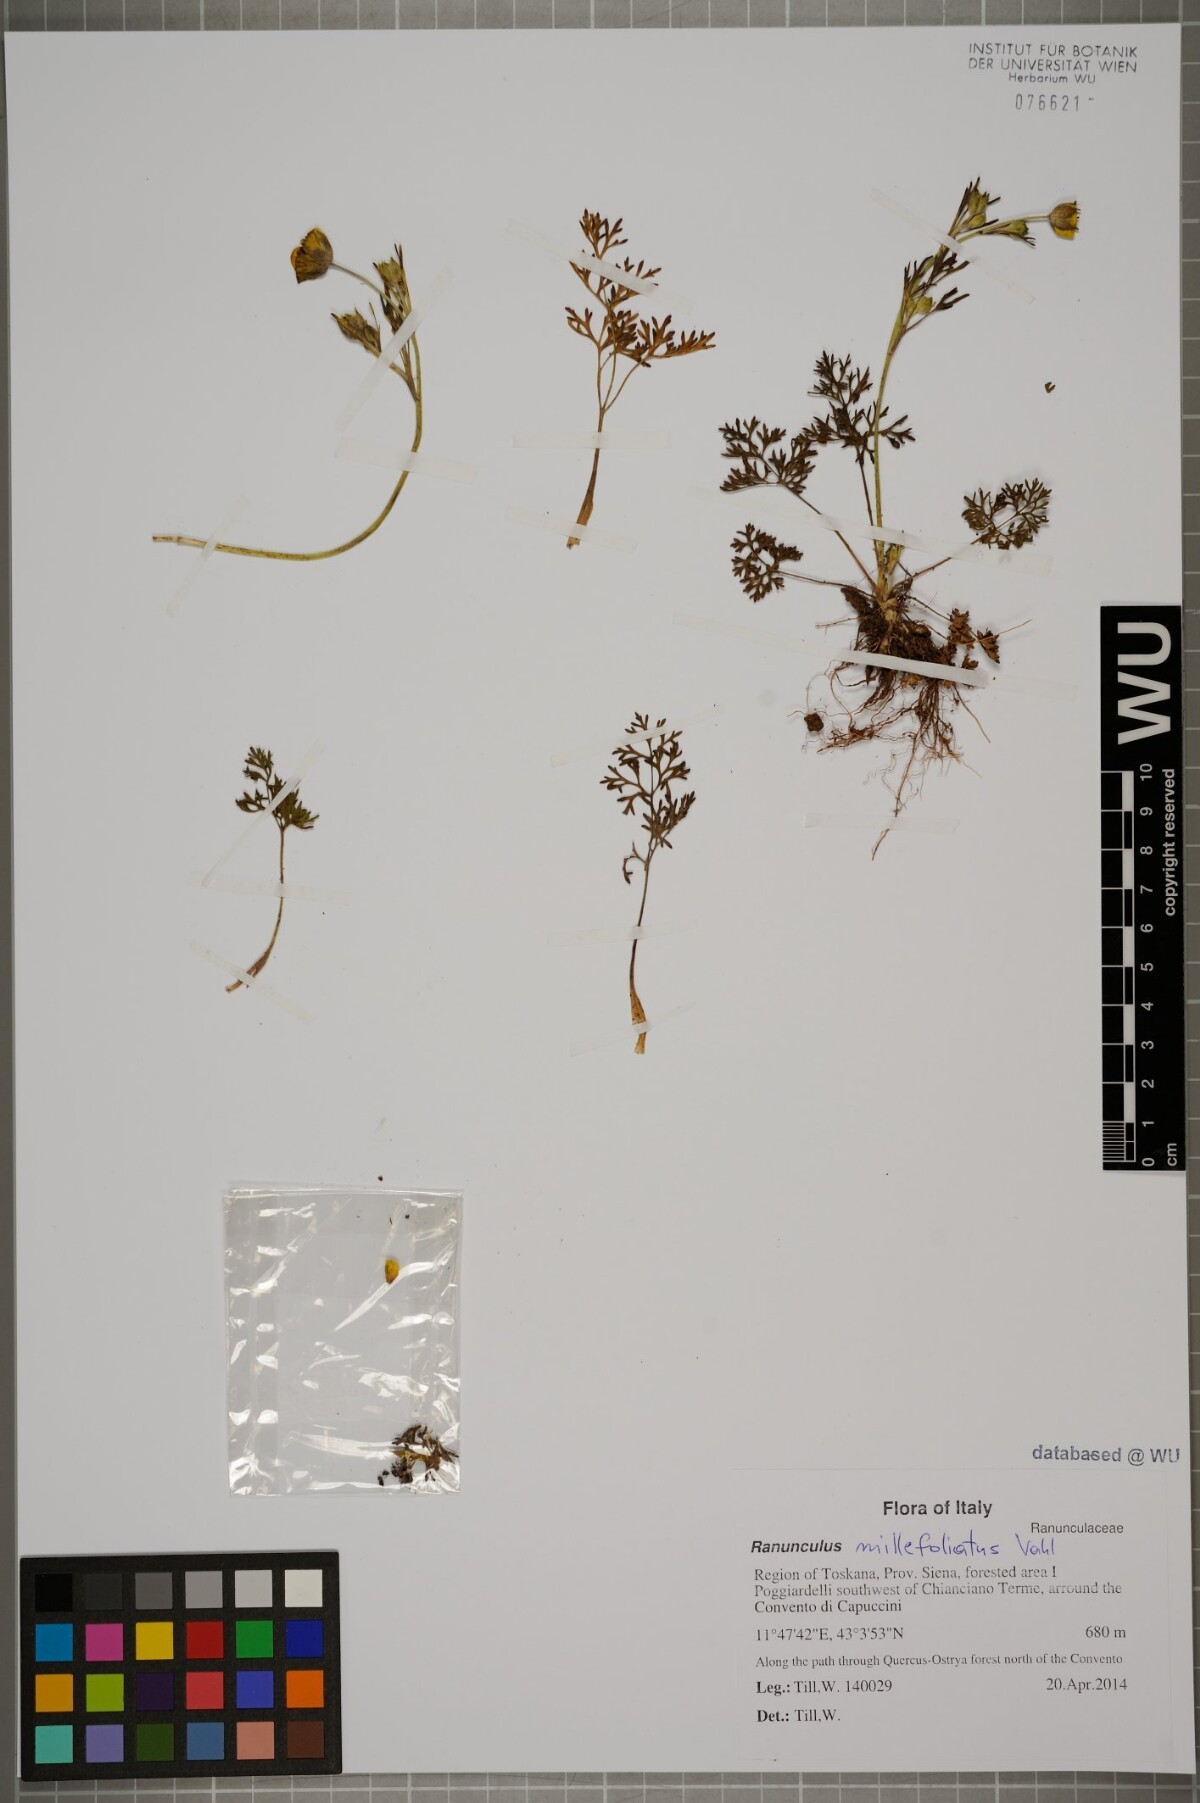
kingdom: Plantae
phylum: Tracheophyta
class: Magnoliopsida
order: Ranunculales
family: Ranunculaceae
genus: Ranunculus
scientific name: Ranunculus millefoliatus
